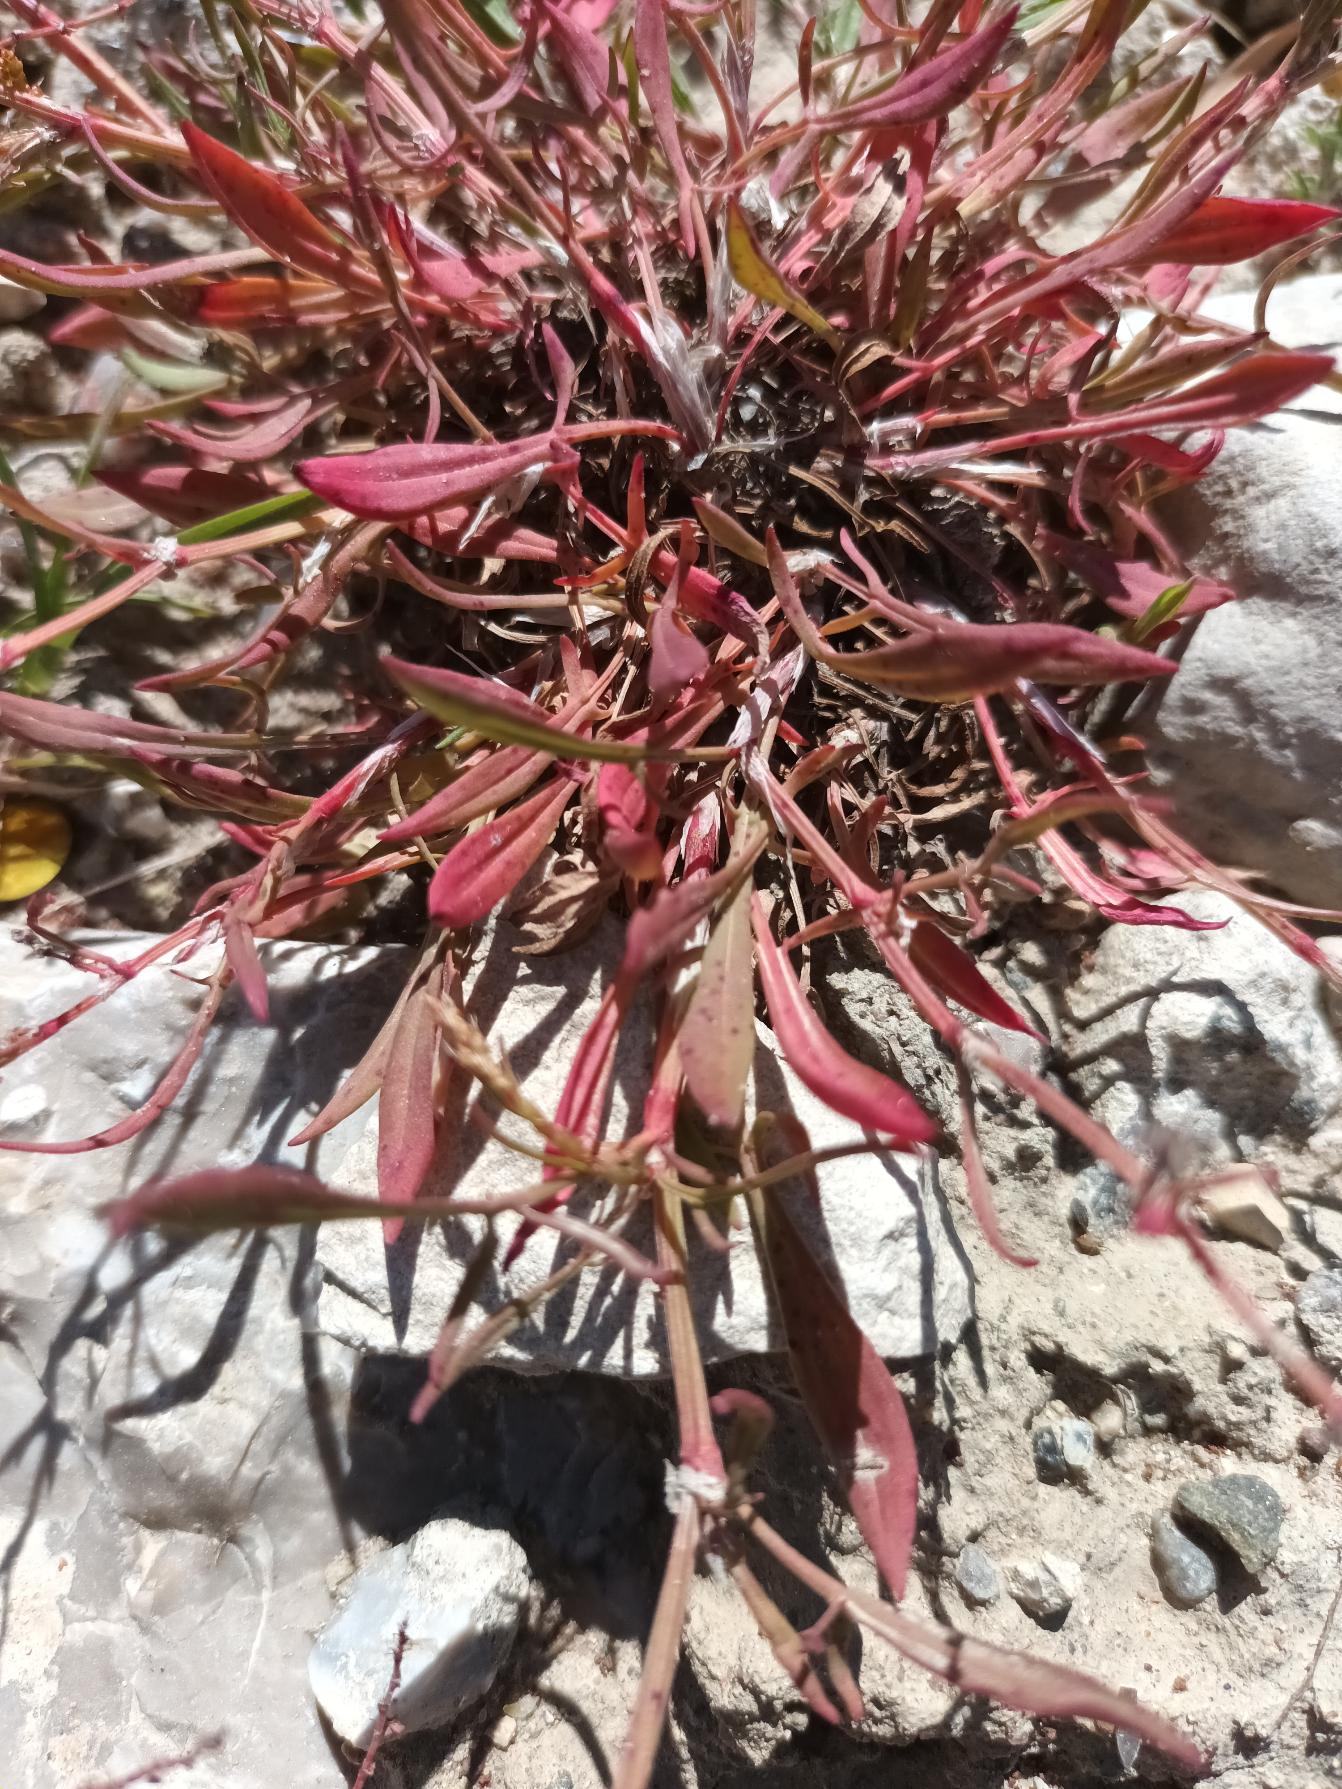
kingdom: Plantae
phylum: Tracheophyta
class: Magnoliopsida
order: Caryophyllales
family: Polygonaceae
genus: Rumex
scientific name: Rumex acetosella
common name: Rødknæ
